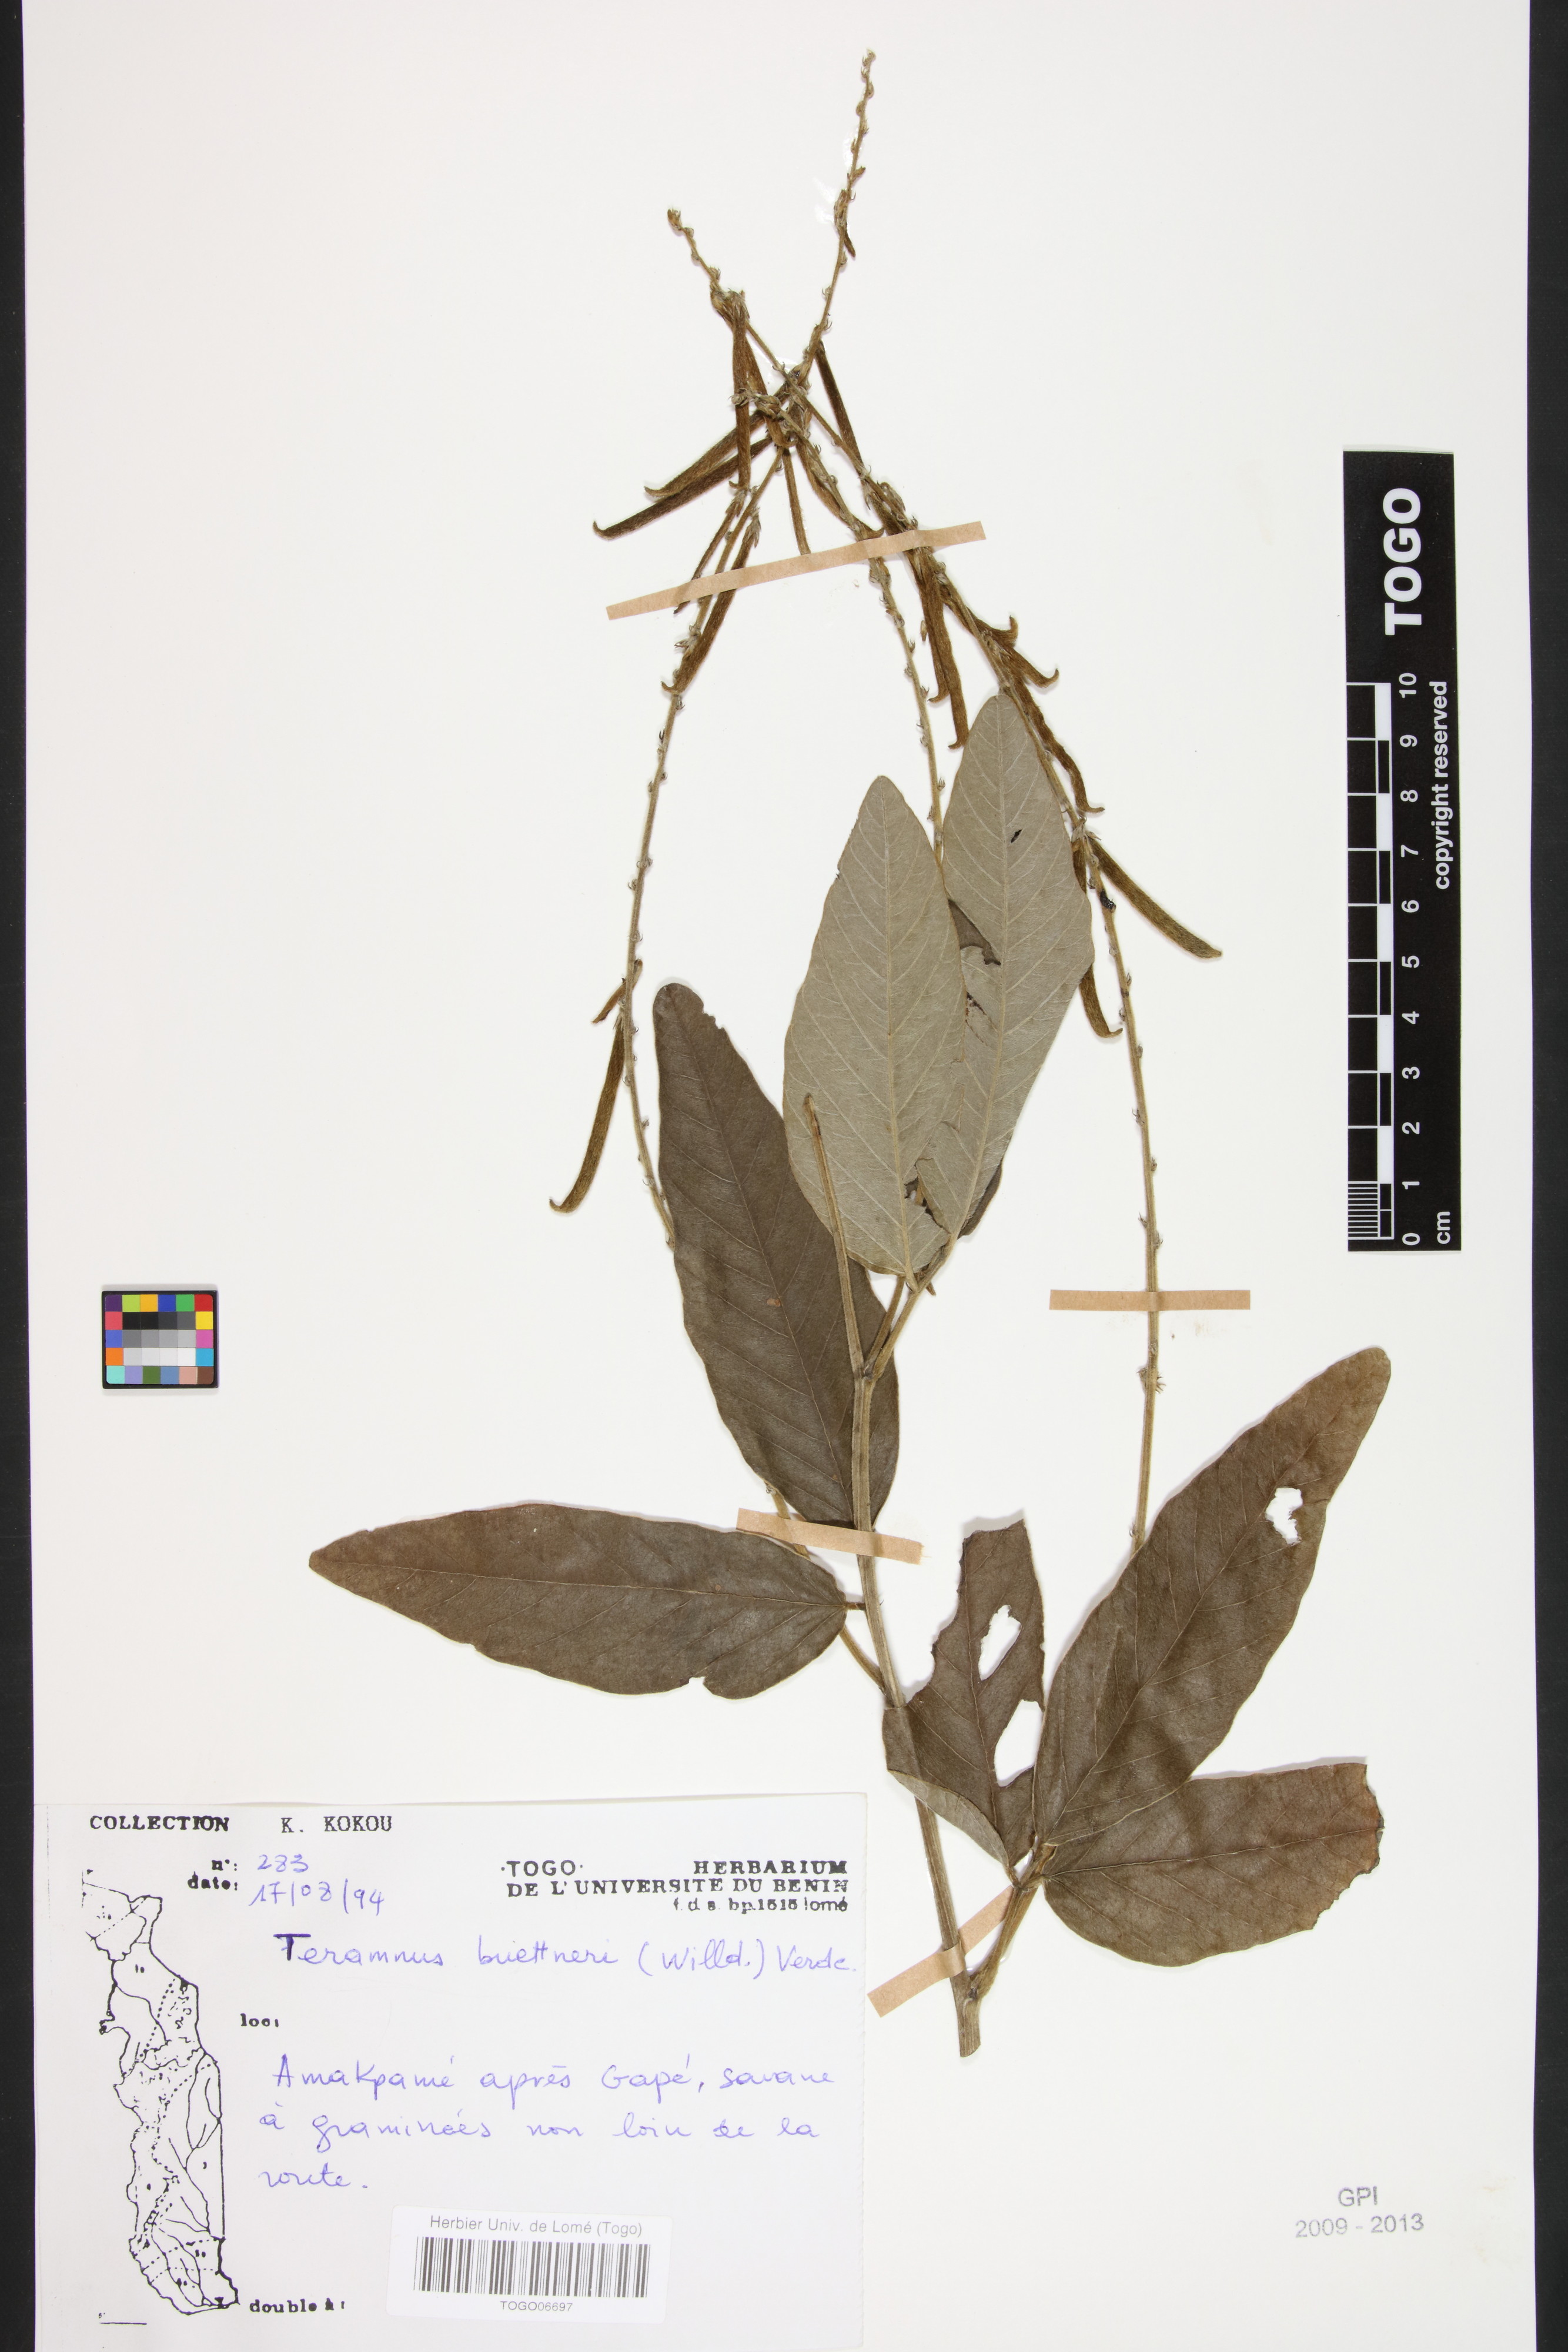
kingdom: Plantae
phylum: Tracheophyta
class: Magnoliopsida
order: Fabales
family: Fabaceae
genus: Teramnus
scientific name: Teramnus buettneri
